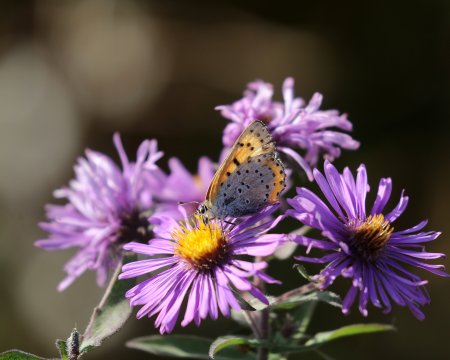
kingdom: Animalia
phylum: Arthropoda
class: Insecta
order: Lepidoptera
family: Sesiidae
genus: Sesia
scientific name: Sesia Lycaena hyllus
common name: Bronze Copper
